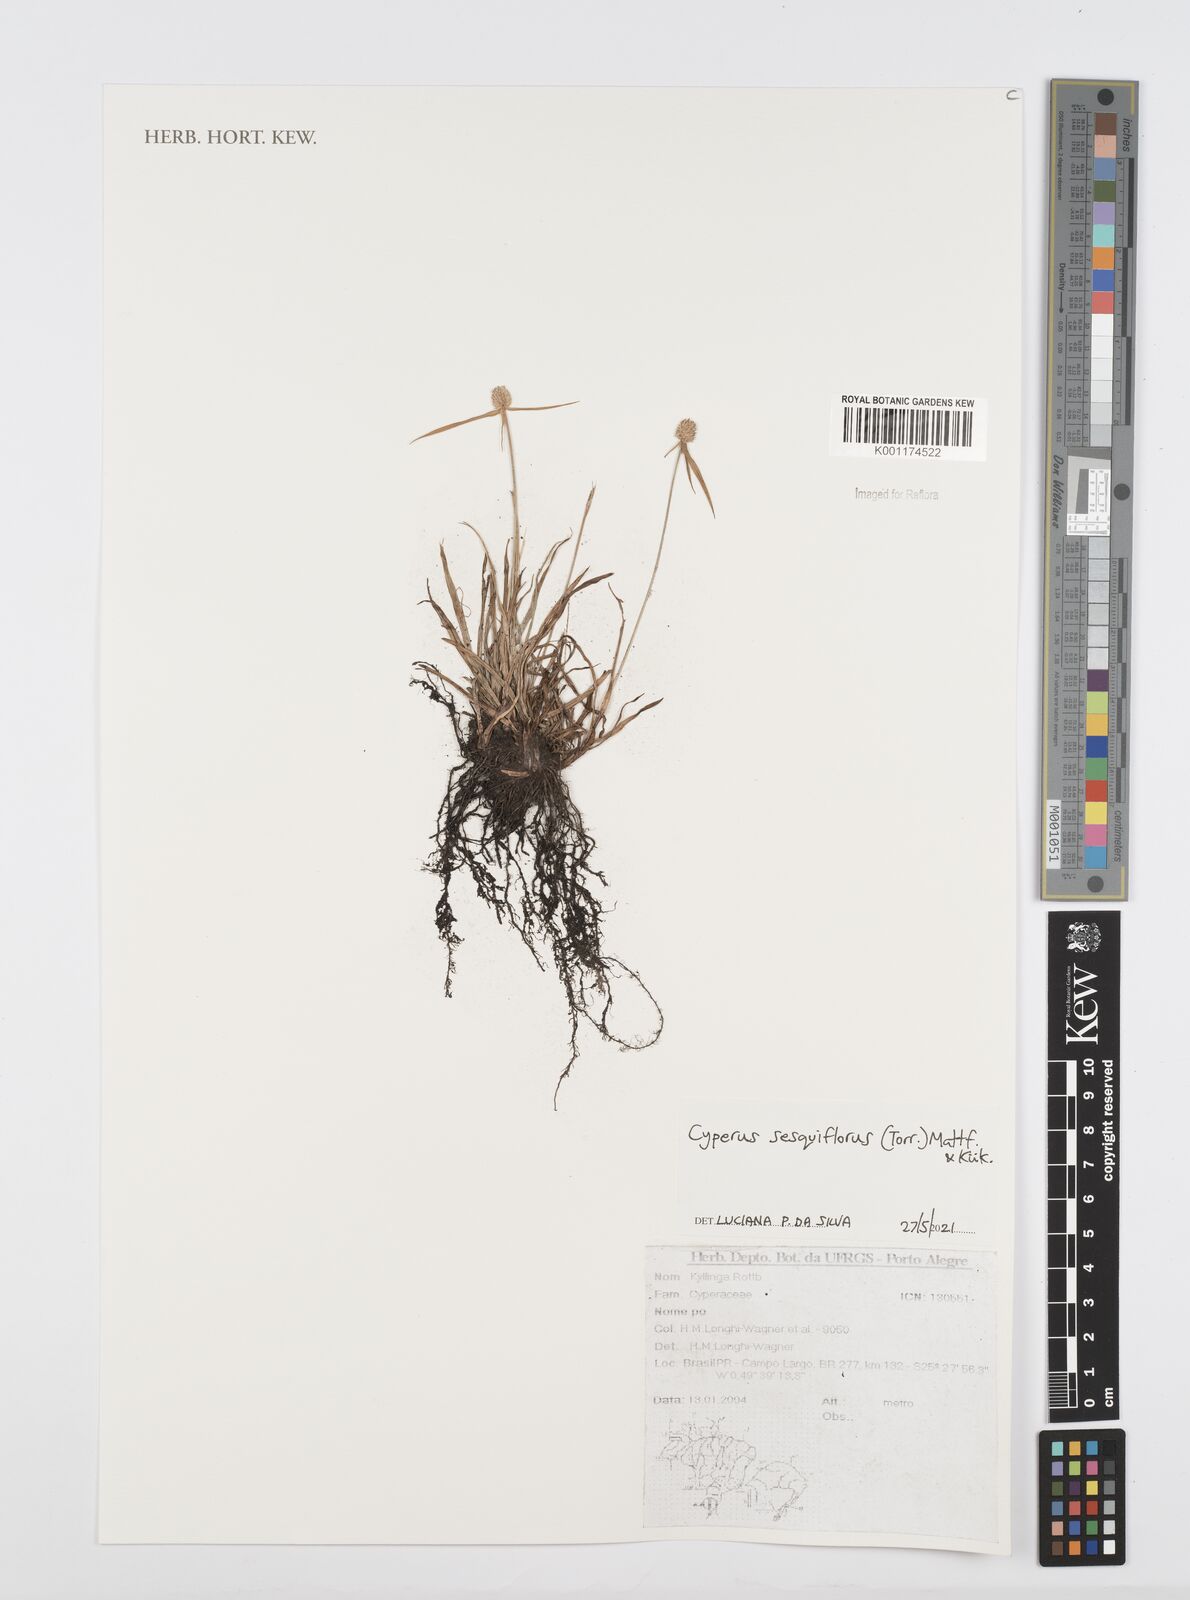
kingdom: Plantae
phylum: Tracheophyta
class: Liliopsida
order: Poales
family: Cyperaceae
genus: Cyperus
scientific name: Cyperus
